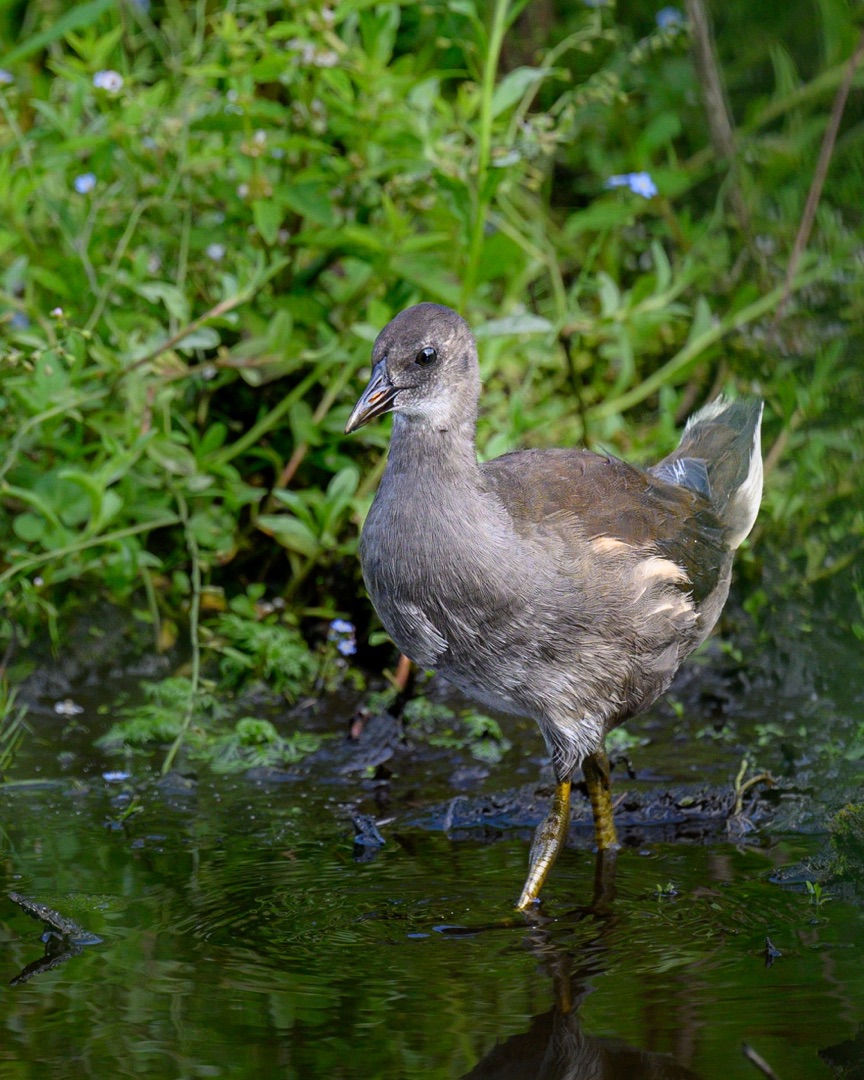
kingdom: Animalia
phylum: Chordata
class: Aves
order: Gruiformes
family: Rallidae
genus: Gallinula
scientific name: Gallinula chloropus
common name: Grønbenet rørhøne
